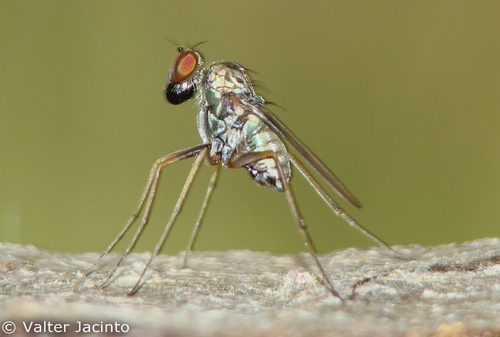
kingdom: Animalia
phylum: Arthropoda
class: Insecta
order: Diptera
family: Dolichopodidae
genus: Medetera
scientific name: Medetera
